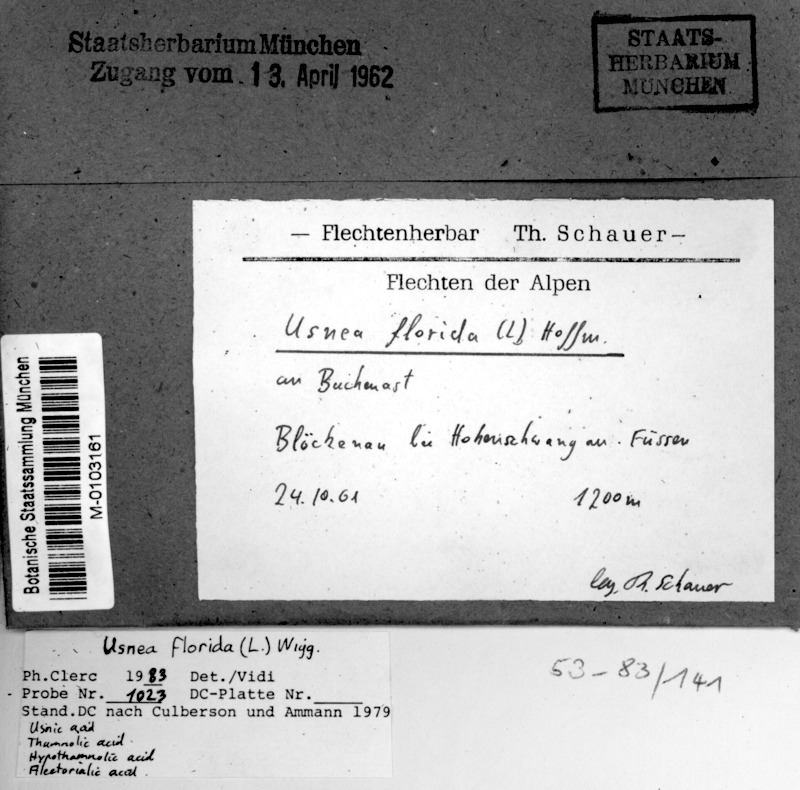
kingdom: Fungi
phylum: Ascomycota
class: Lecanoromycetes
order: Lecanorales
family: Parmeliaceae
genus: Usnea
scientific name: Usnea florida
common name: Witches' whiskers lichen
